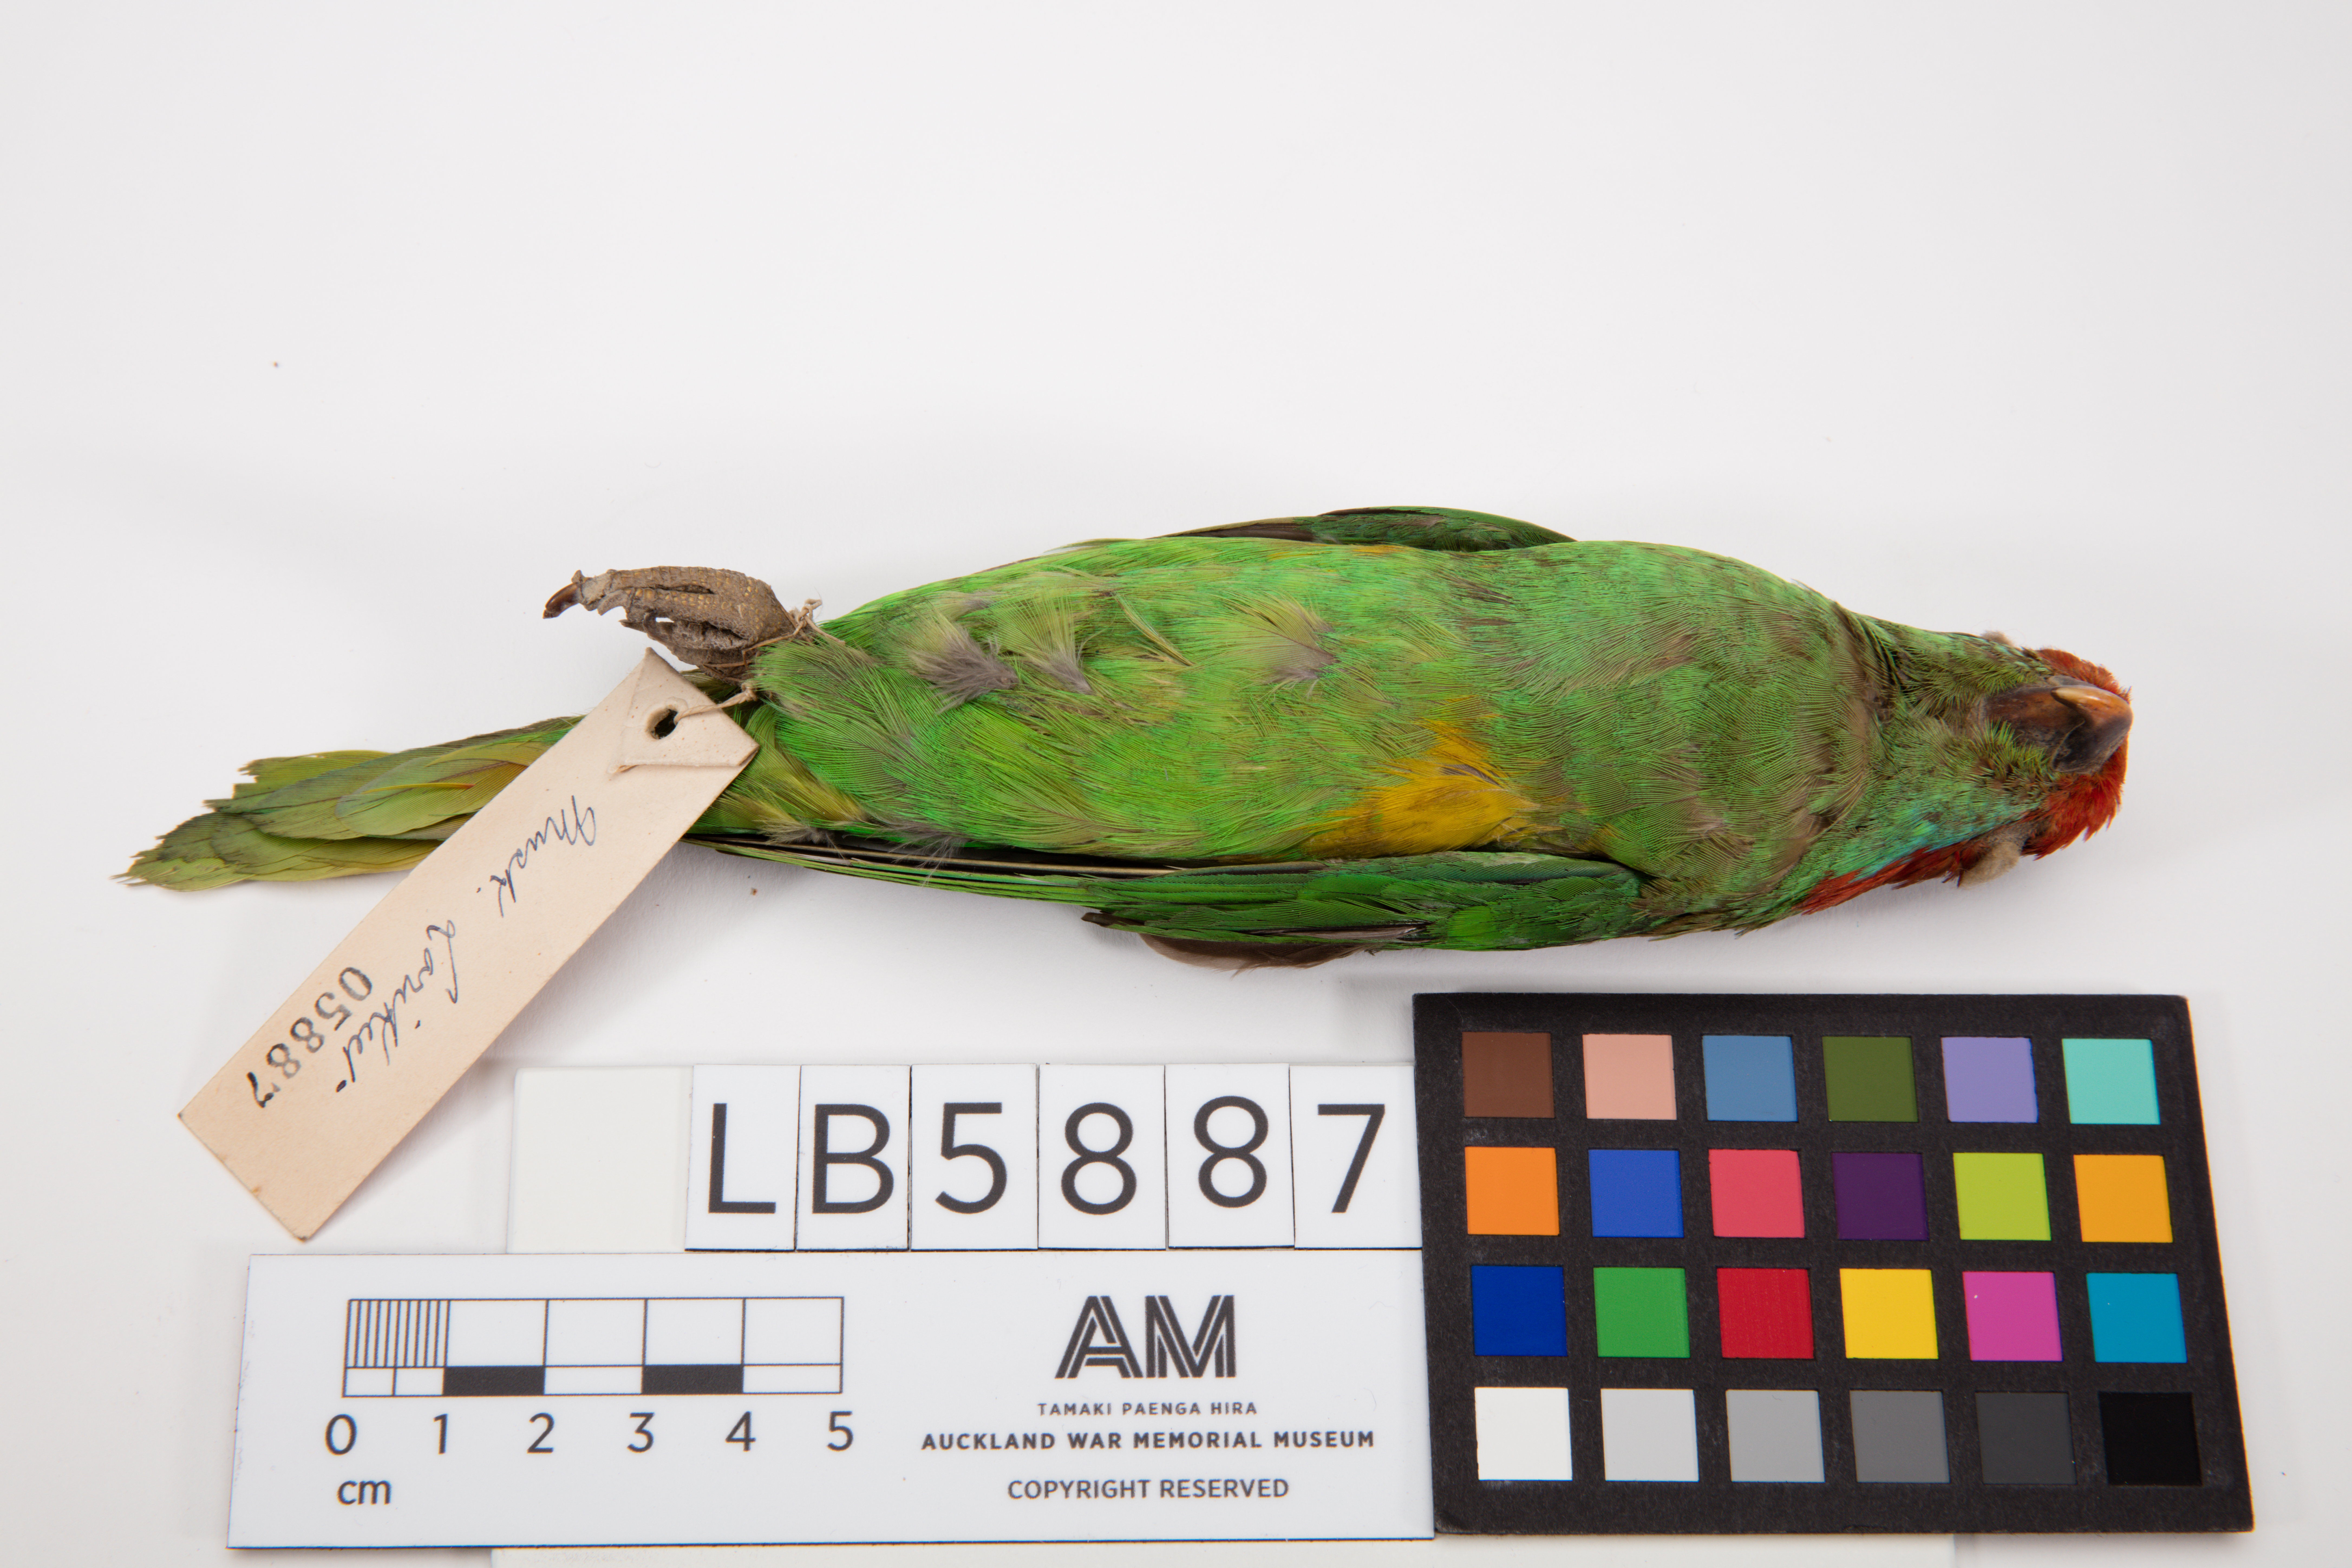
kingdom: Animalia
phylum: Chordata
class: Aves
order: Psittaciformes
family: Psittacidae
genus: Glossopsitta
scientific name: Glossopsitta concinna
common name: Musk lorikeet
